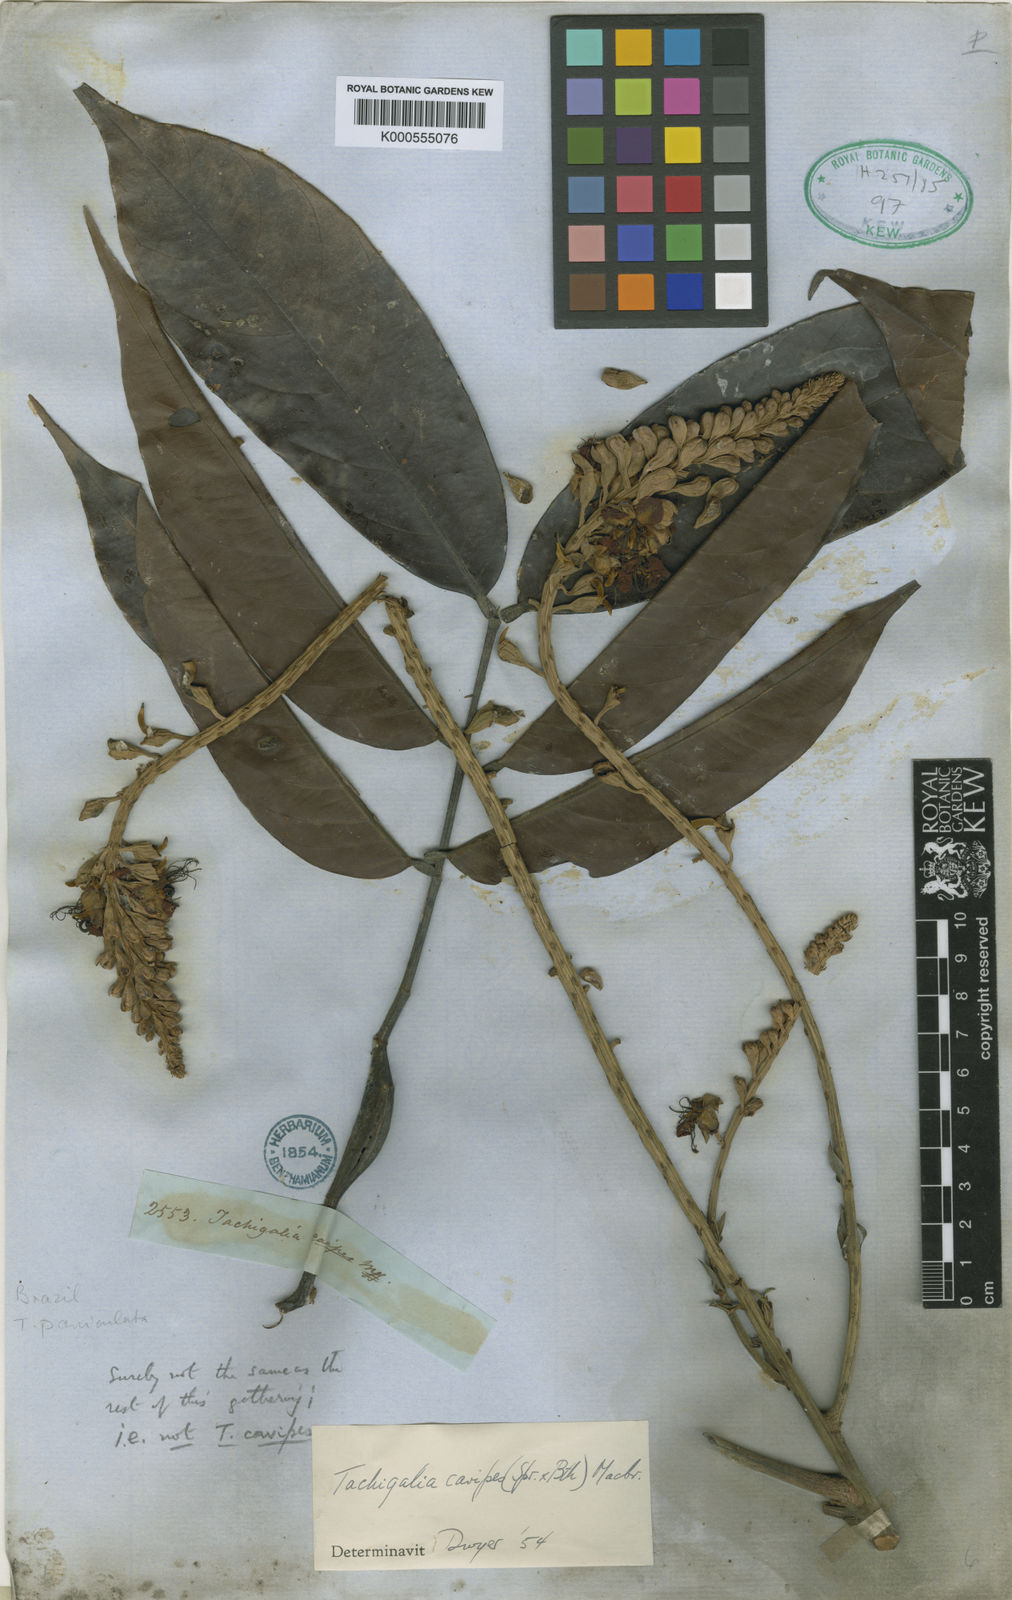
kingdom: Plantae
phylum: Tracheophyta
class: Magnoliopsida
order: Fabales
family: Fabaceae
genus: Tachigali
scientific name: Tachigali cavipes
